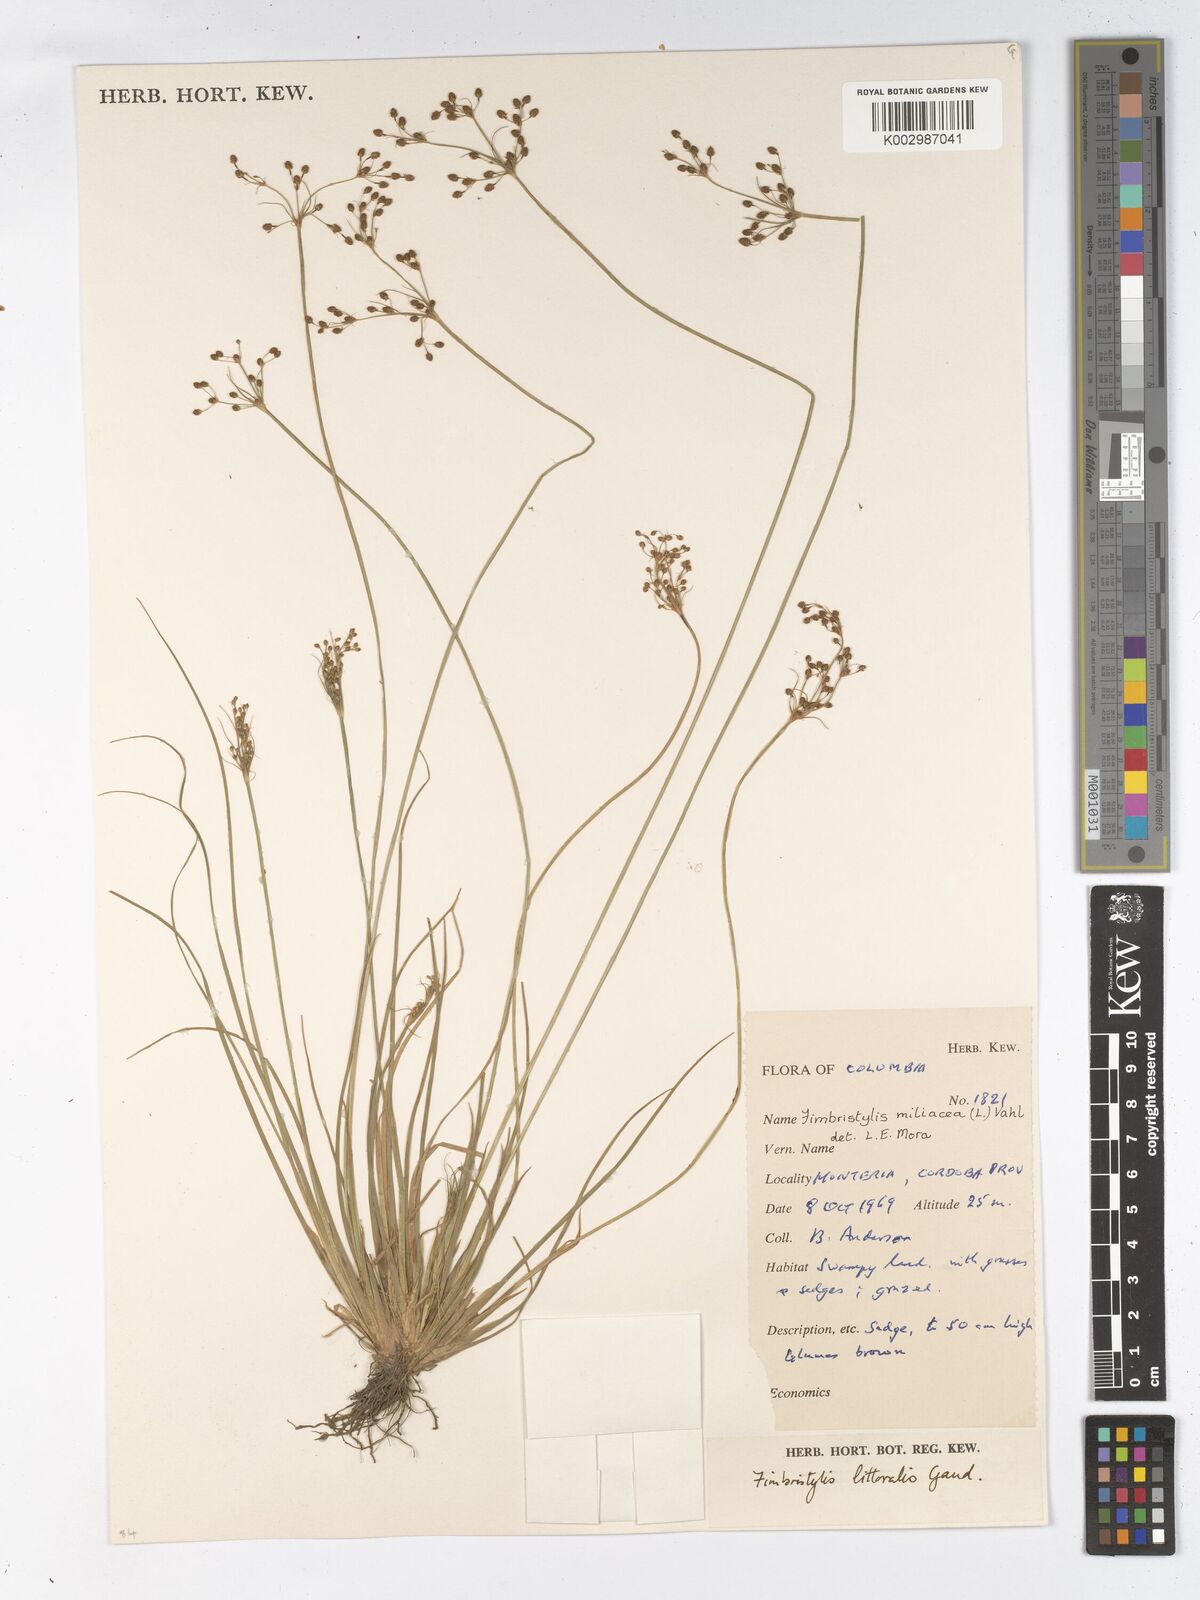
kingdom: Plantae
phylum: Tracheophyta
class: Liliopsida
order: Poales
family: Cyperaceae
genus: Fimbristylis
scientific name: Fimbristylis littoralis
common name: Fimbry
